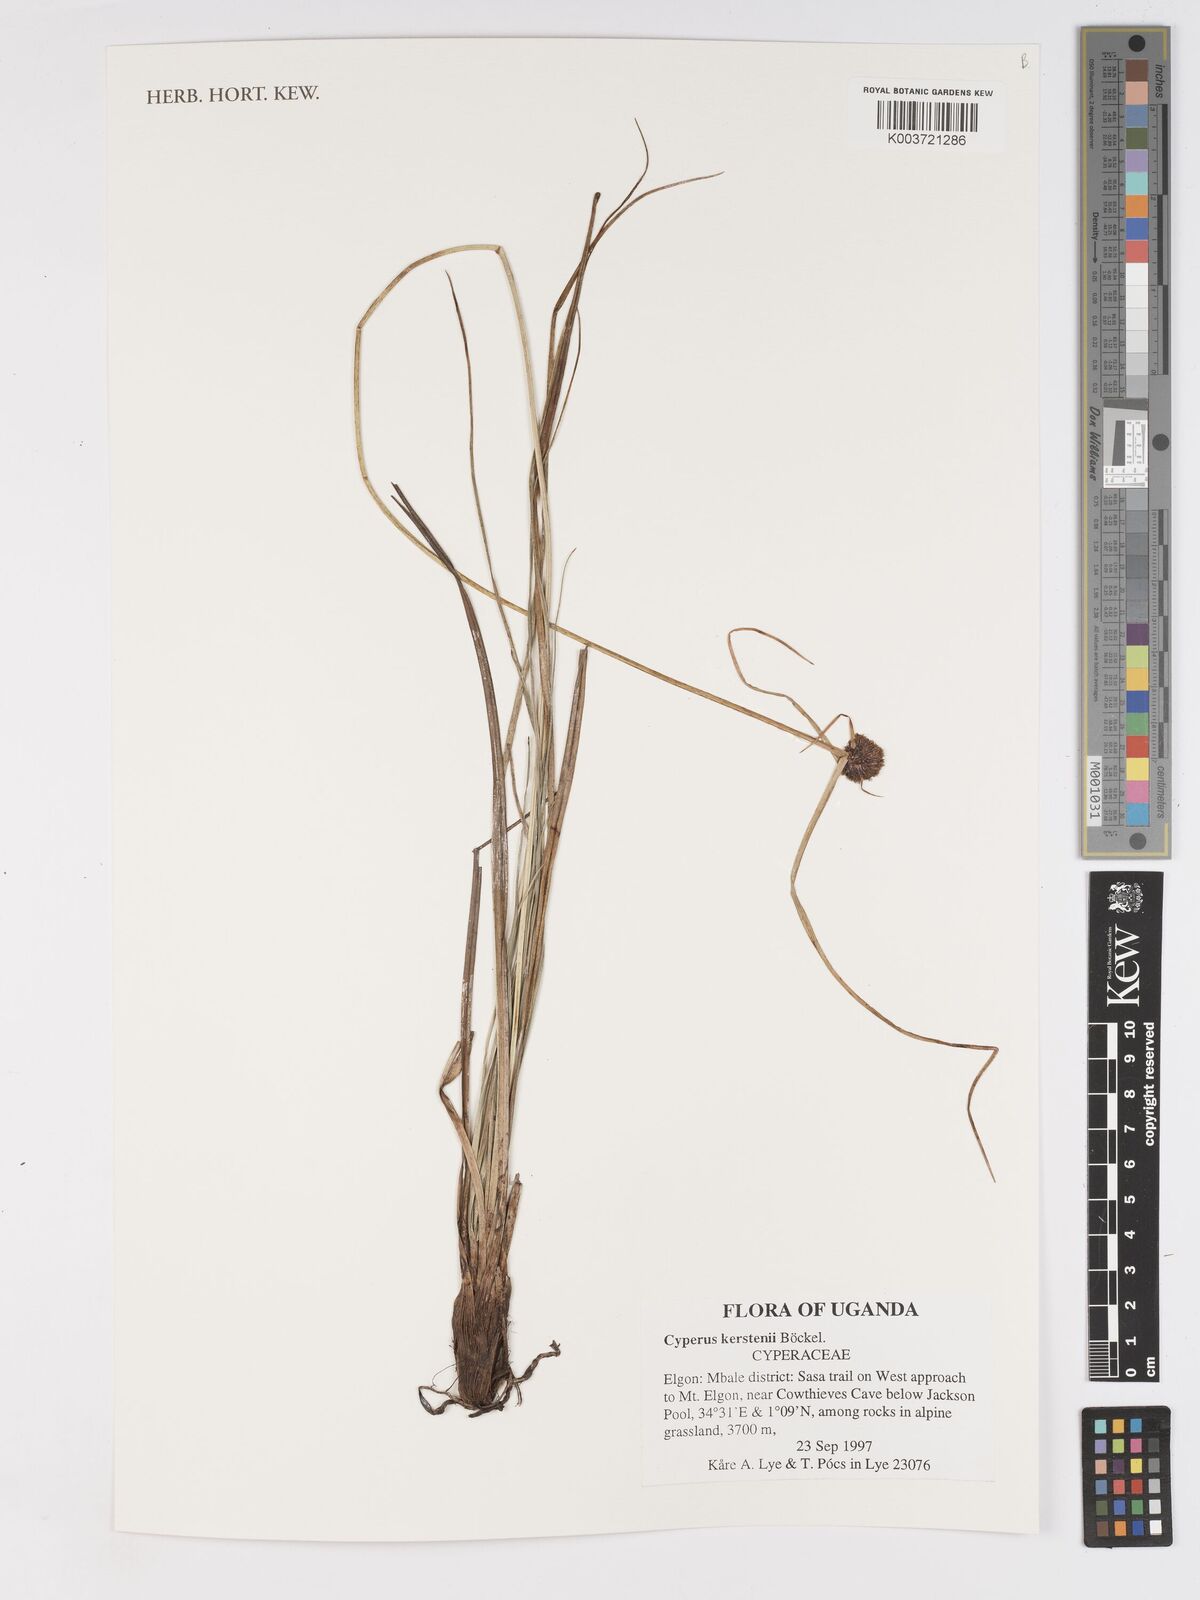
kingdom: Plantae
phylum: Tracheophyta
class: Liliopsida
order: Poales
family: Cyperaceae
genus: Cyperus
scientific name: Cyperus kerstenii
